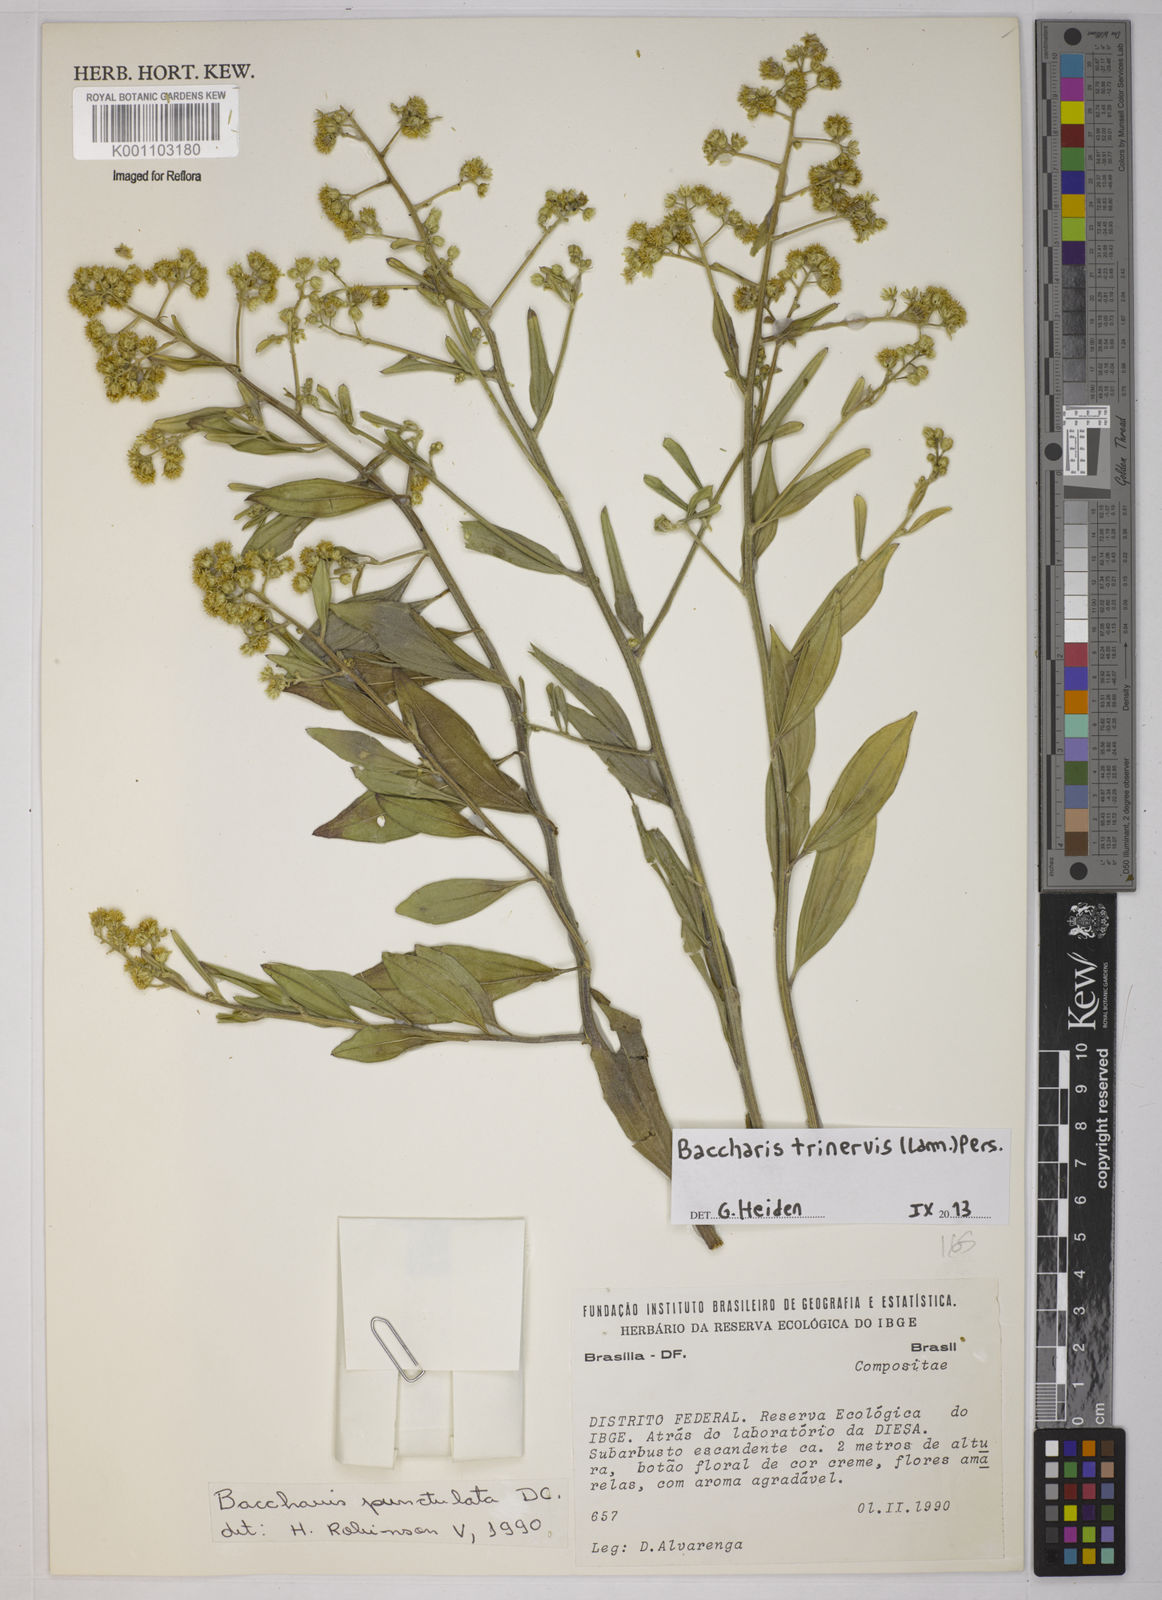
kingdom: Plantae
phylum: Tracheophyta
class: Magnoliopsida
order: Asterales
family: Asteraceae
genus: Baccharis
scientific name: Baccharis trinervis
